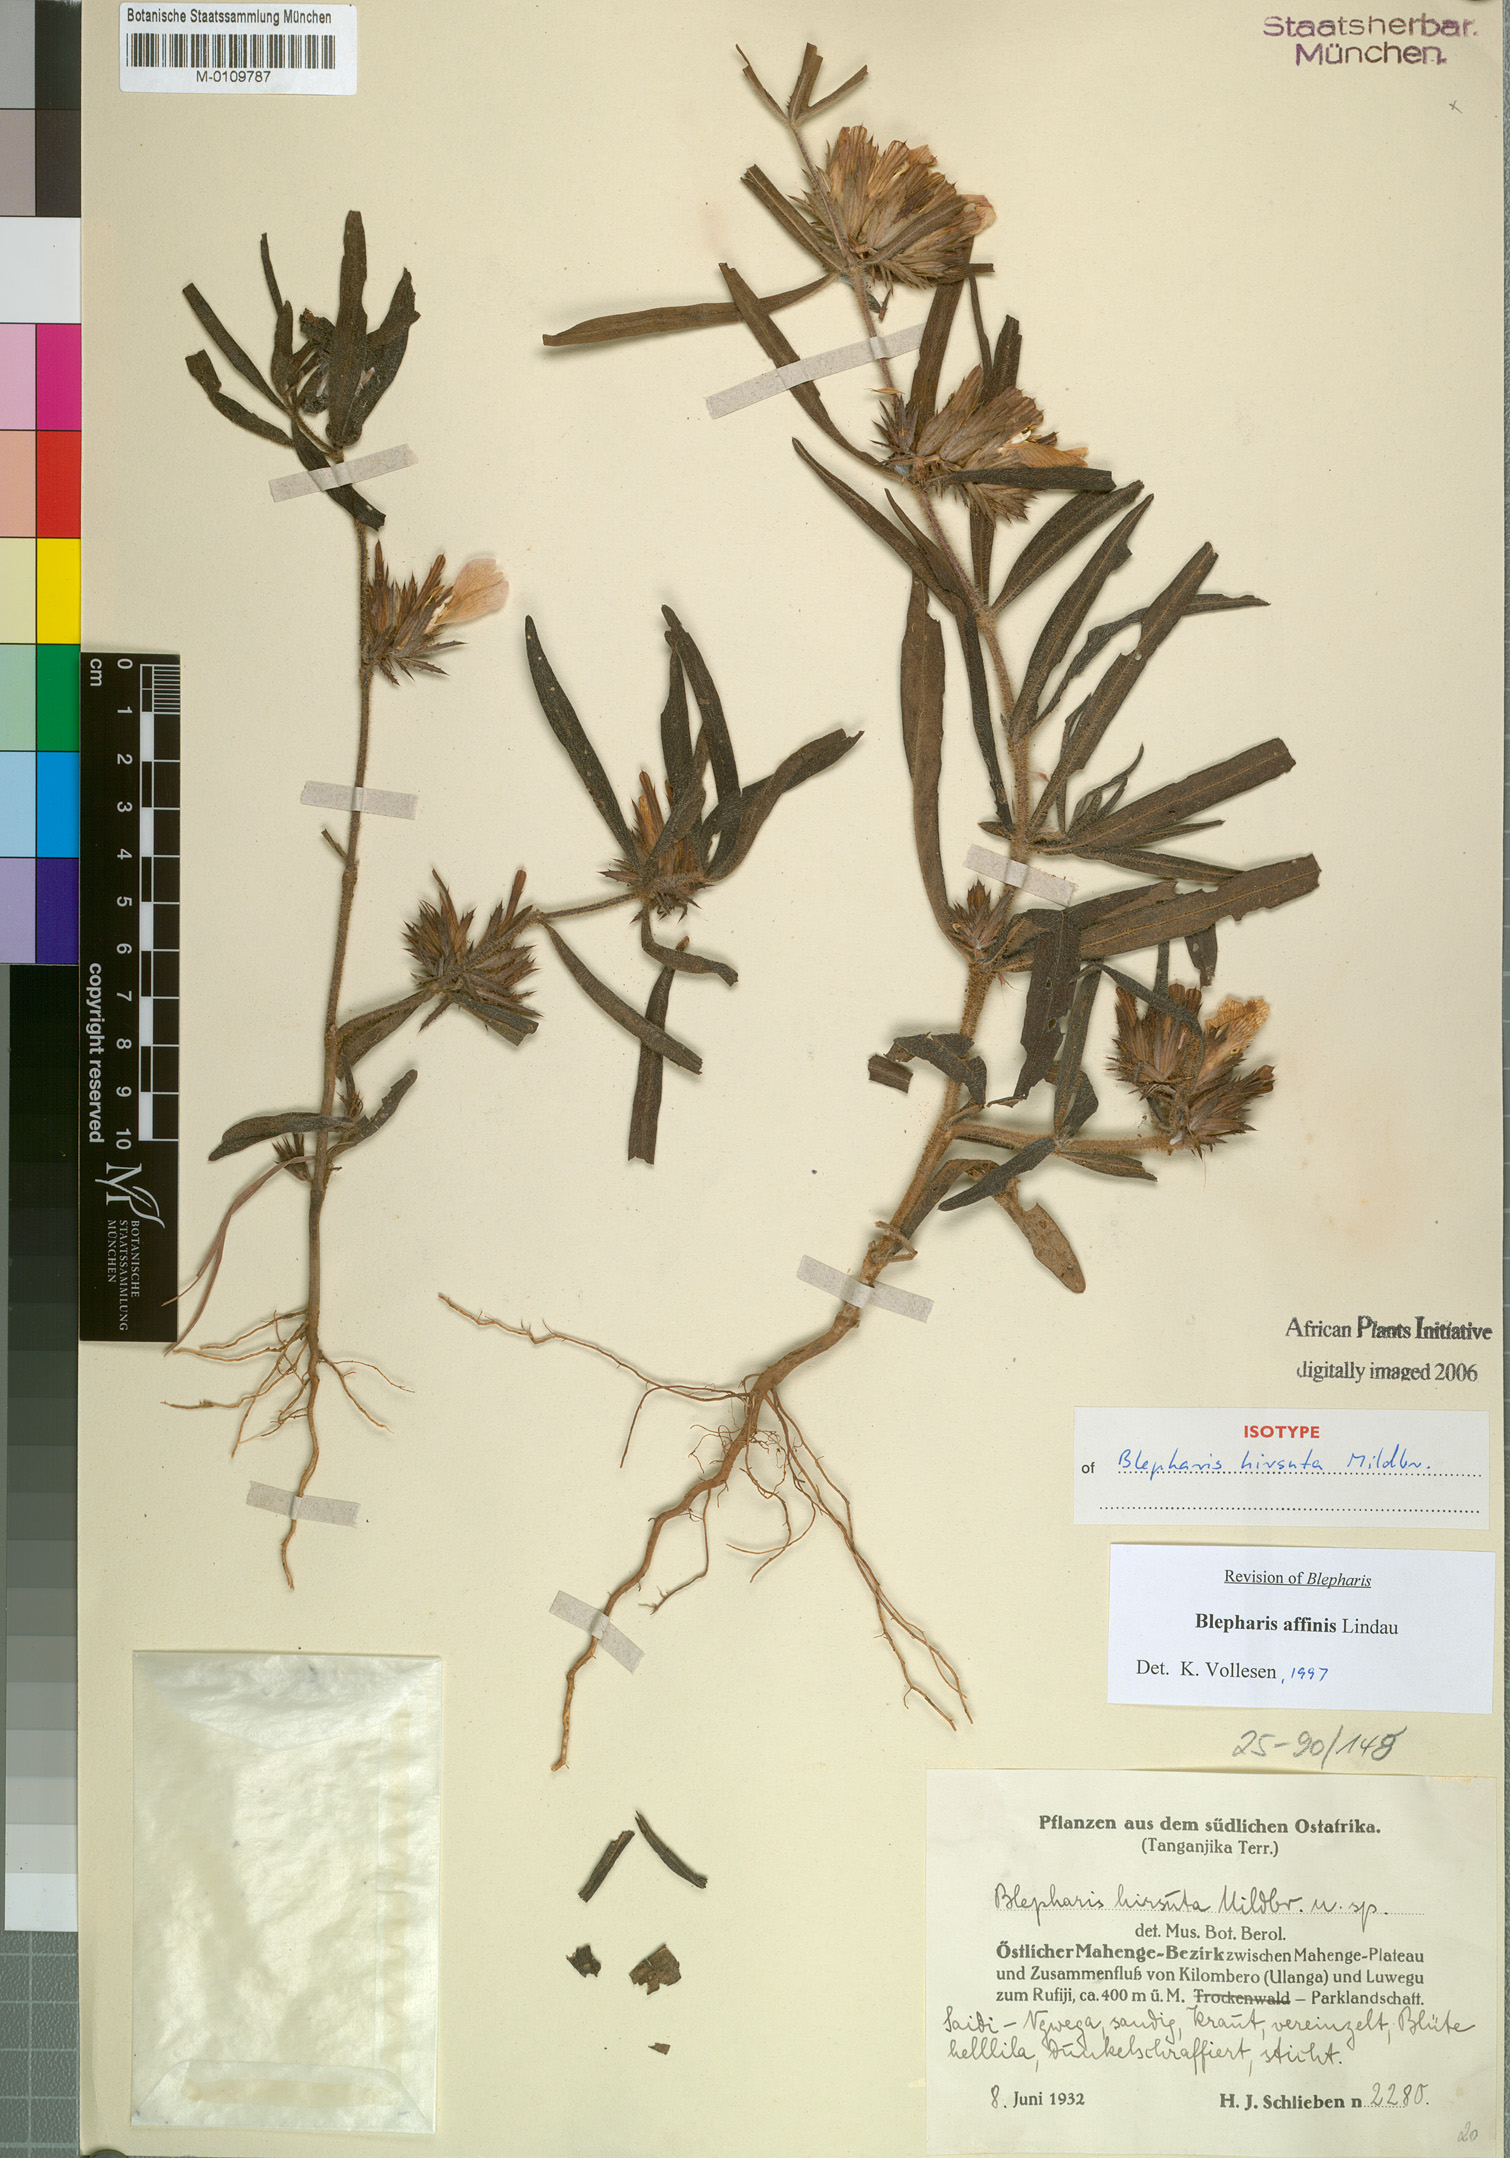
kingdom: Plantae
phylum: Tracheophyta
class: Magnoliopsida
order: Lamiales
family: Acanthaceae
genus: Blepharis
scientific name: Blepharis affinis
